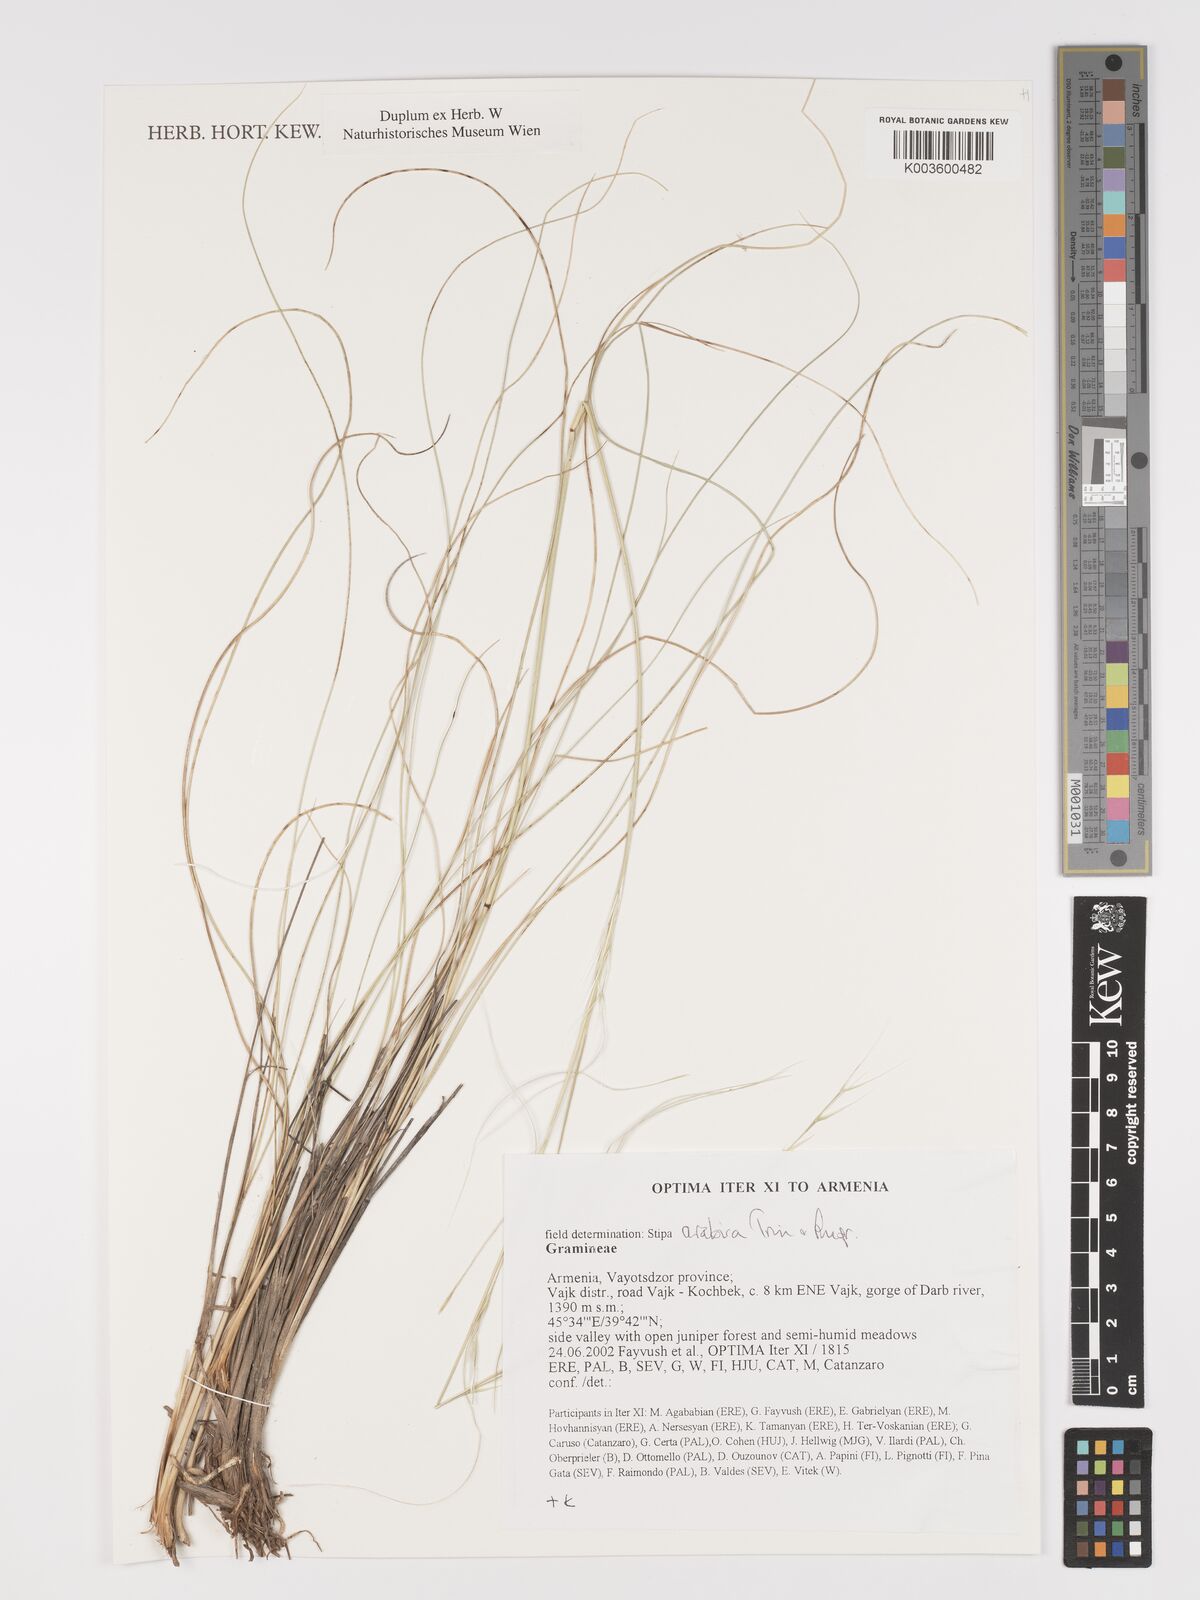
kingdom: Plantae
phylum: Tracheophyta
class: Liliopsida
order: Poales
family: Poaceae
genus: Stipa
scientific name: Stipa arabica
